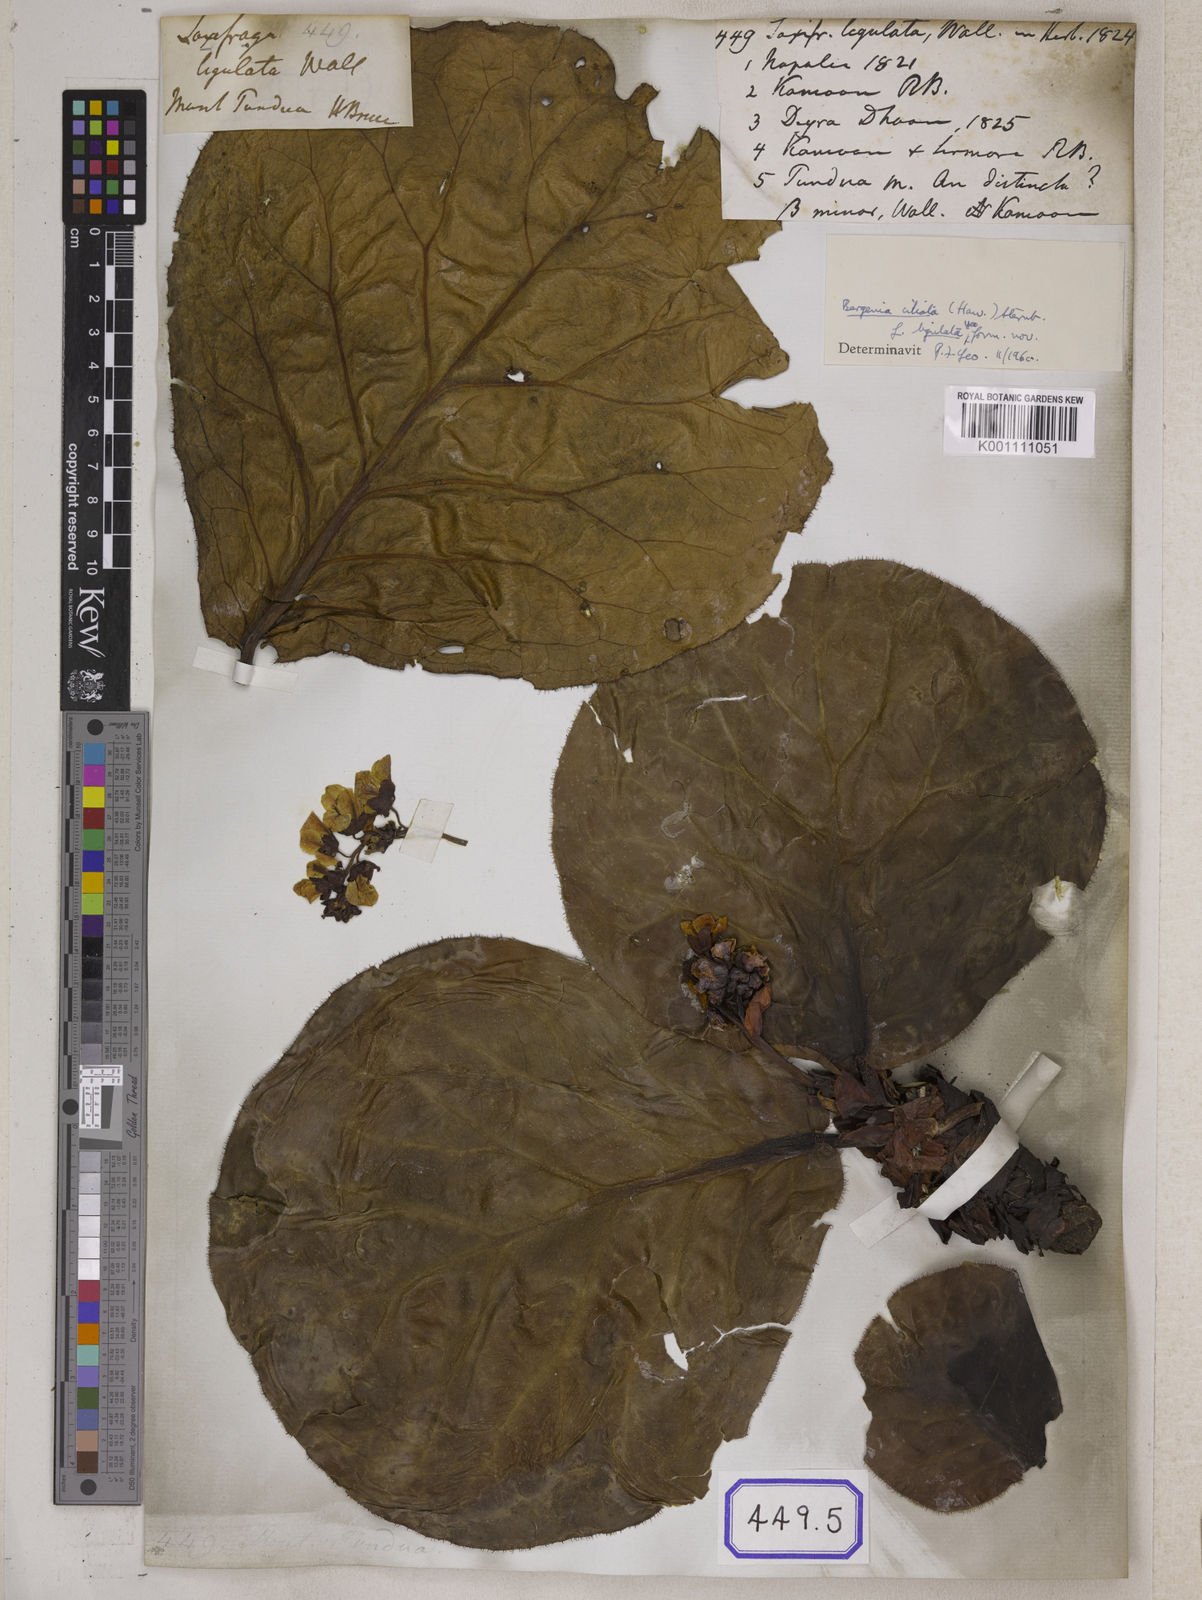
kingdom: Plantae
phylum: Tracheophyta
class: Magnoliopsida
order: Saxifragales
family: Saxifragaceae
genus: Bergenia
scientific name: Bergenia pacumbis
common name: Chinese bergenia
